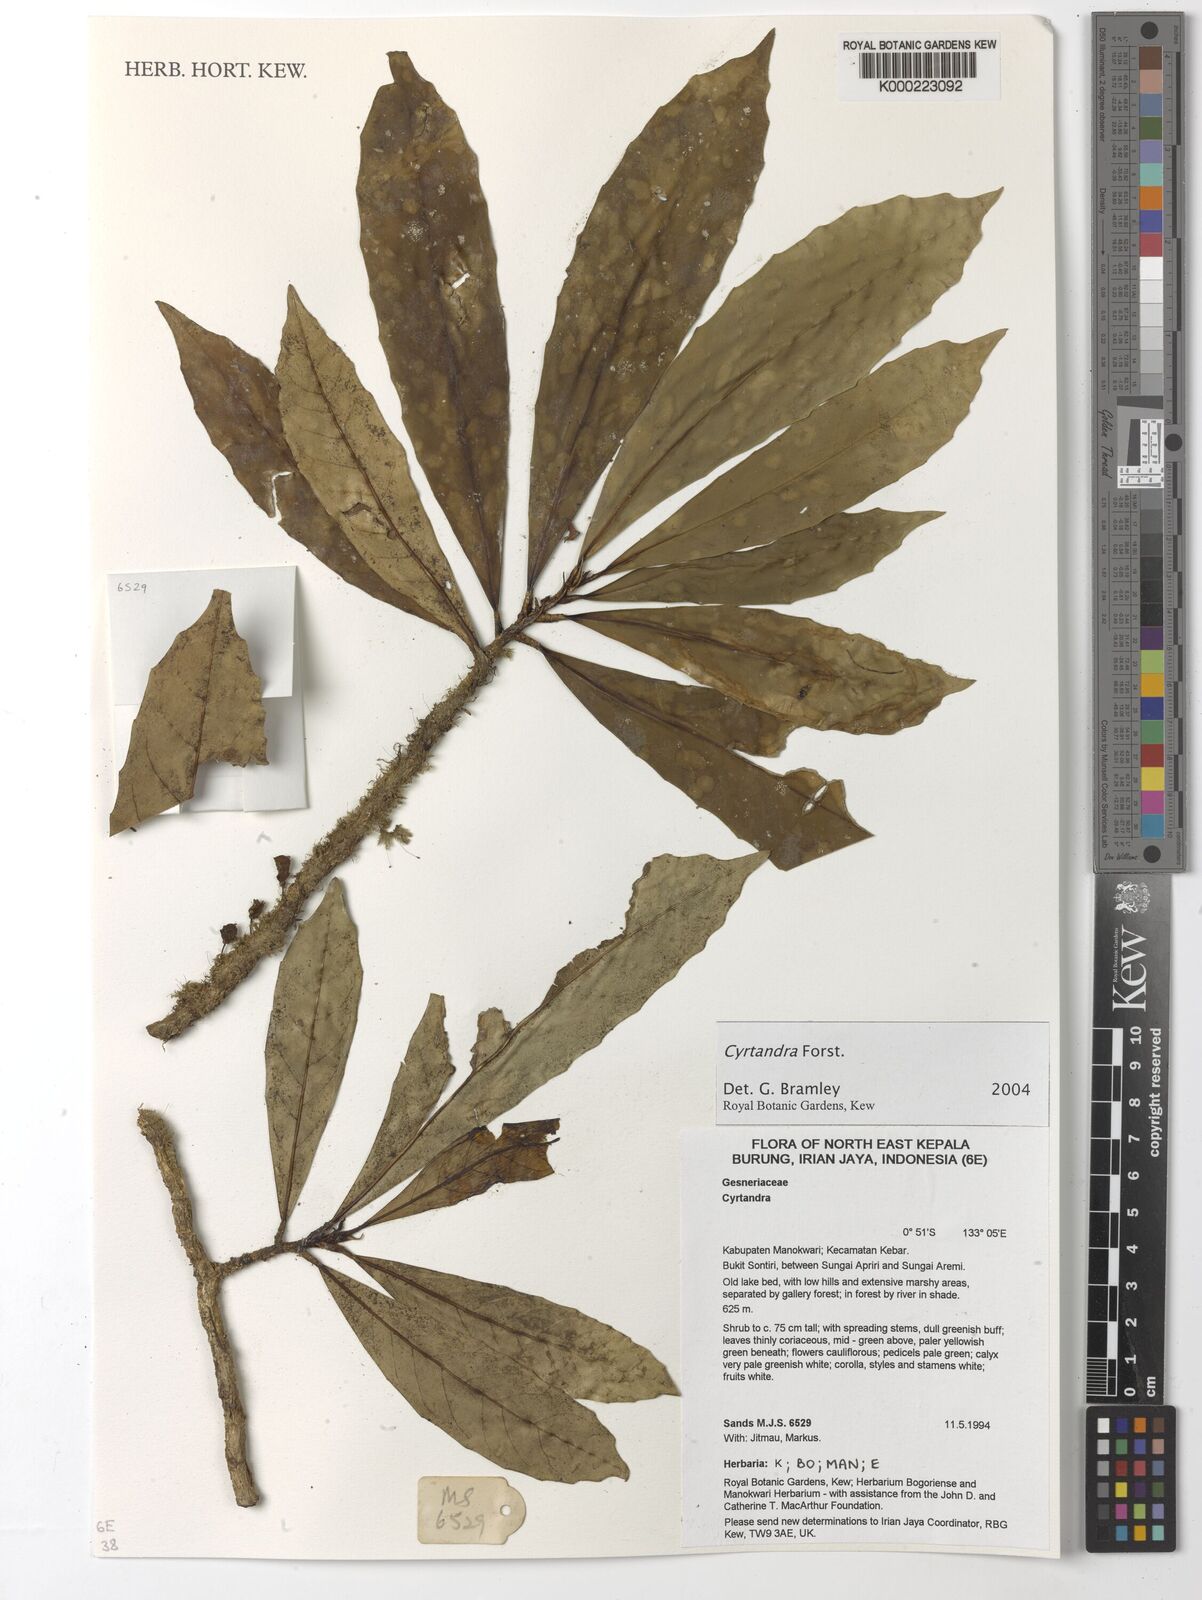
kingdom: Plantae
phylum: Tracheophyta
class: Magnoliopsida
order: Lamiales
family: Gesneriaceae
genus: Cyrtandra
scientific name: Cyrtandra
